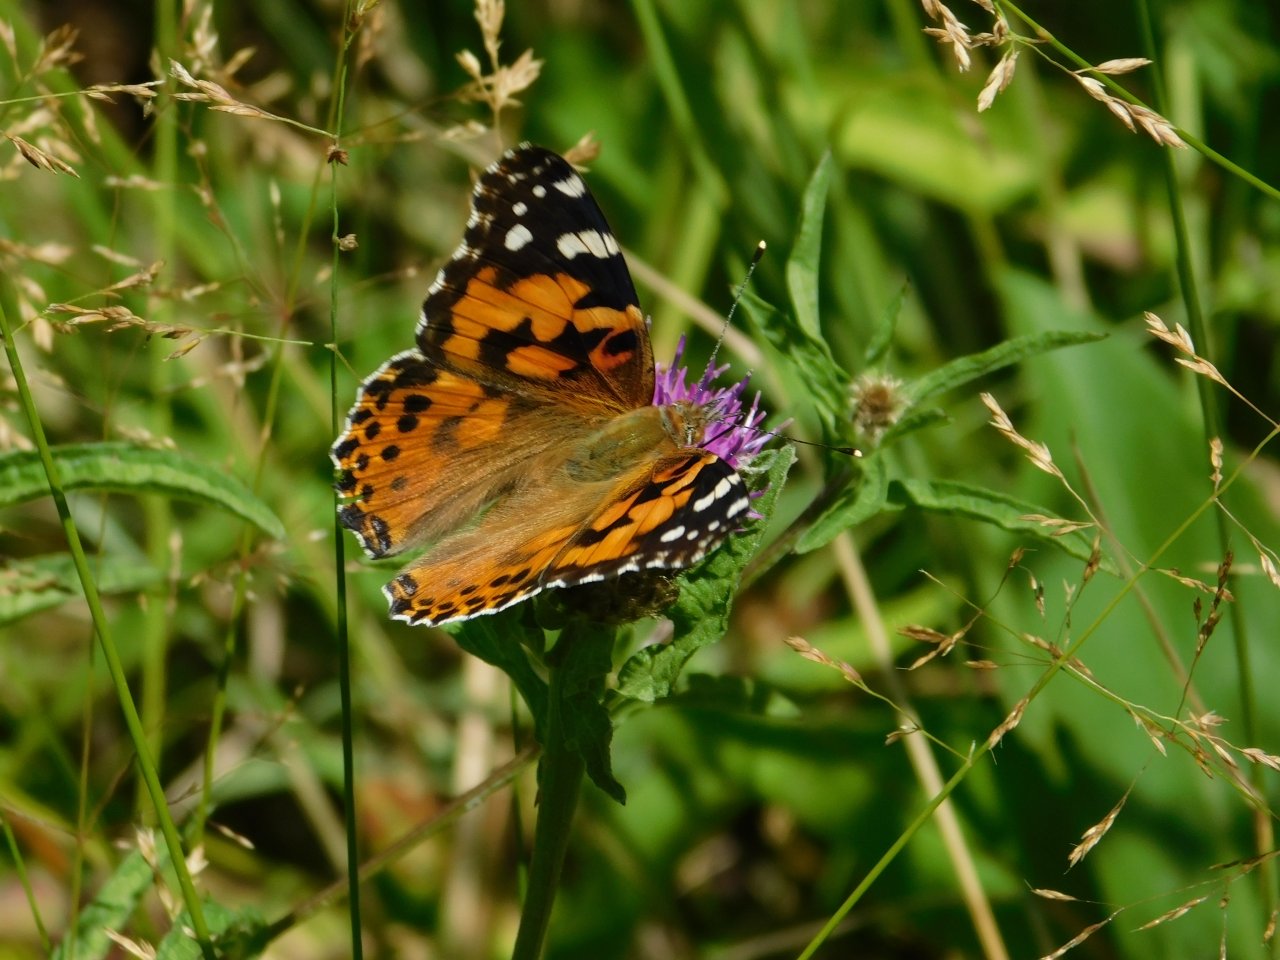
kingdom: Animalia
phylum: Arthropoda
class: Insecta
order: Lepidoptera
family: Nymphalidae
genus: Vanessa
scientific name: Vanessa cardui
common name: Painted Lady
